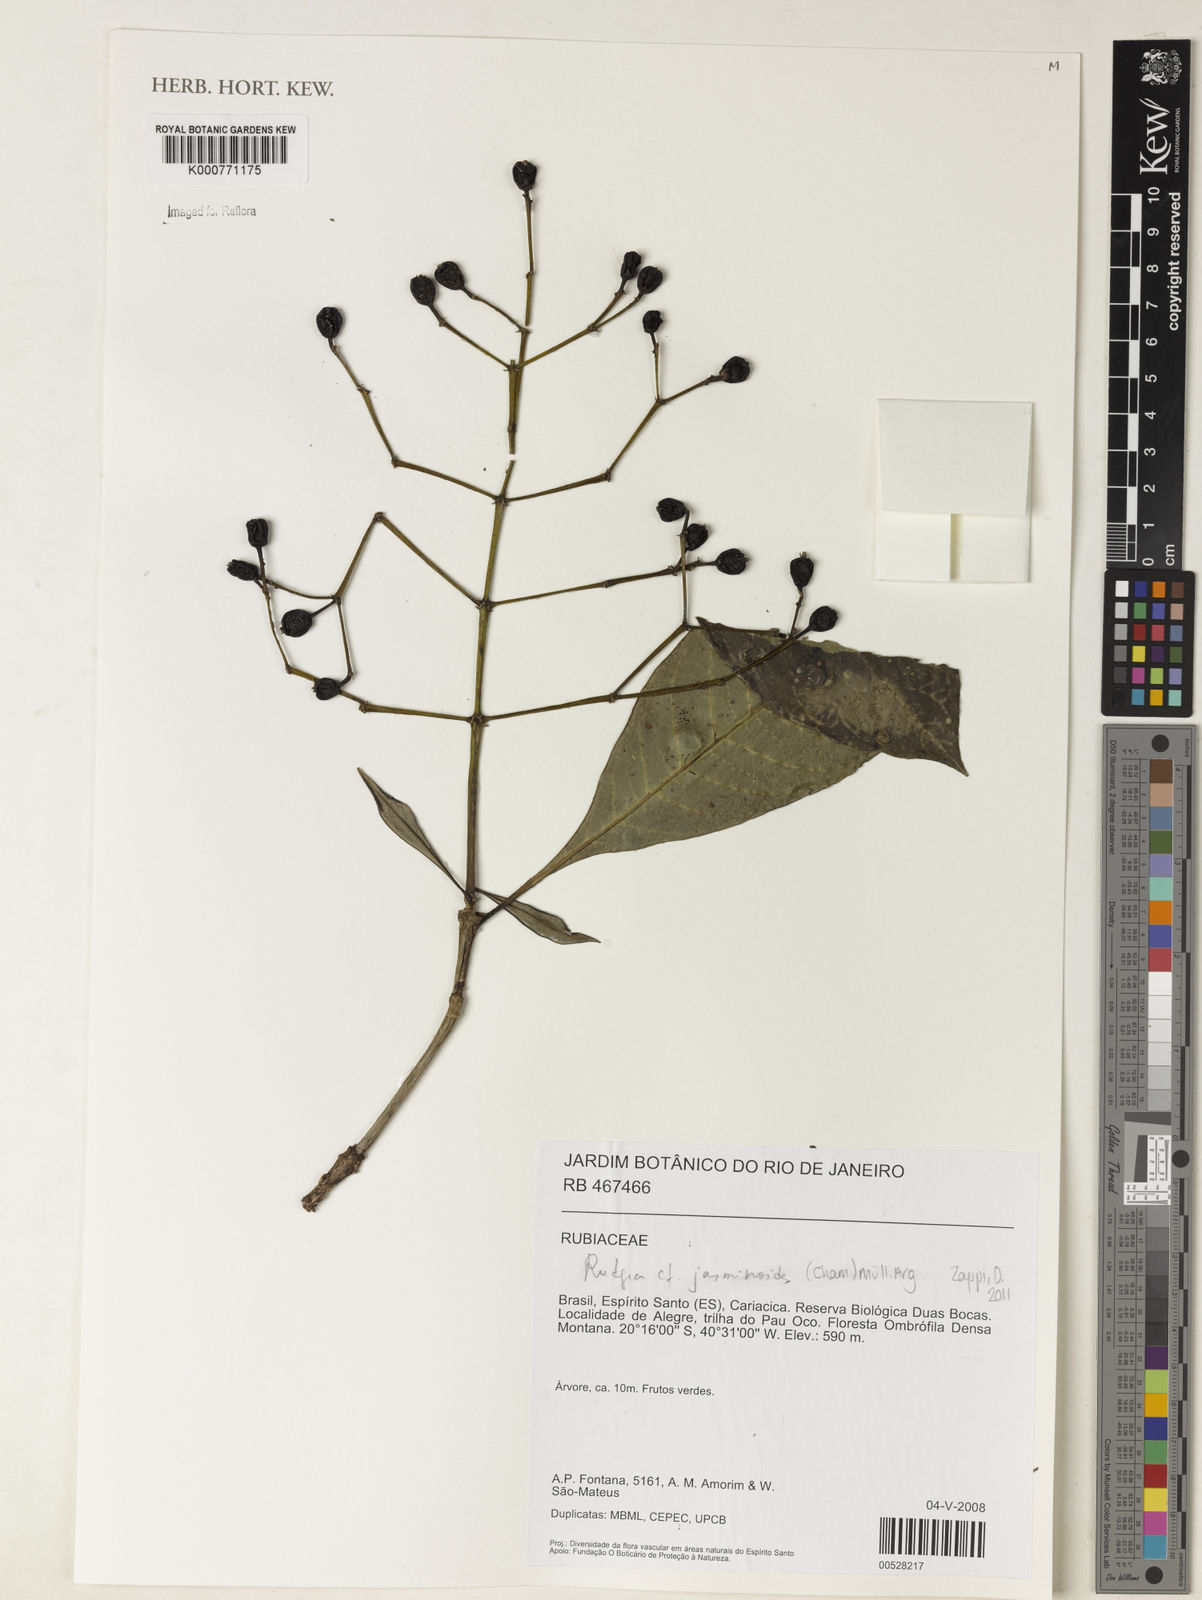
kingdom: Plantae
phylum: Tracheophyta
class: Magnoliopsida
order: Gentianales
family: Rubiaceae
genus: Rudgea
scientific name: Rudgea
